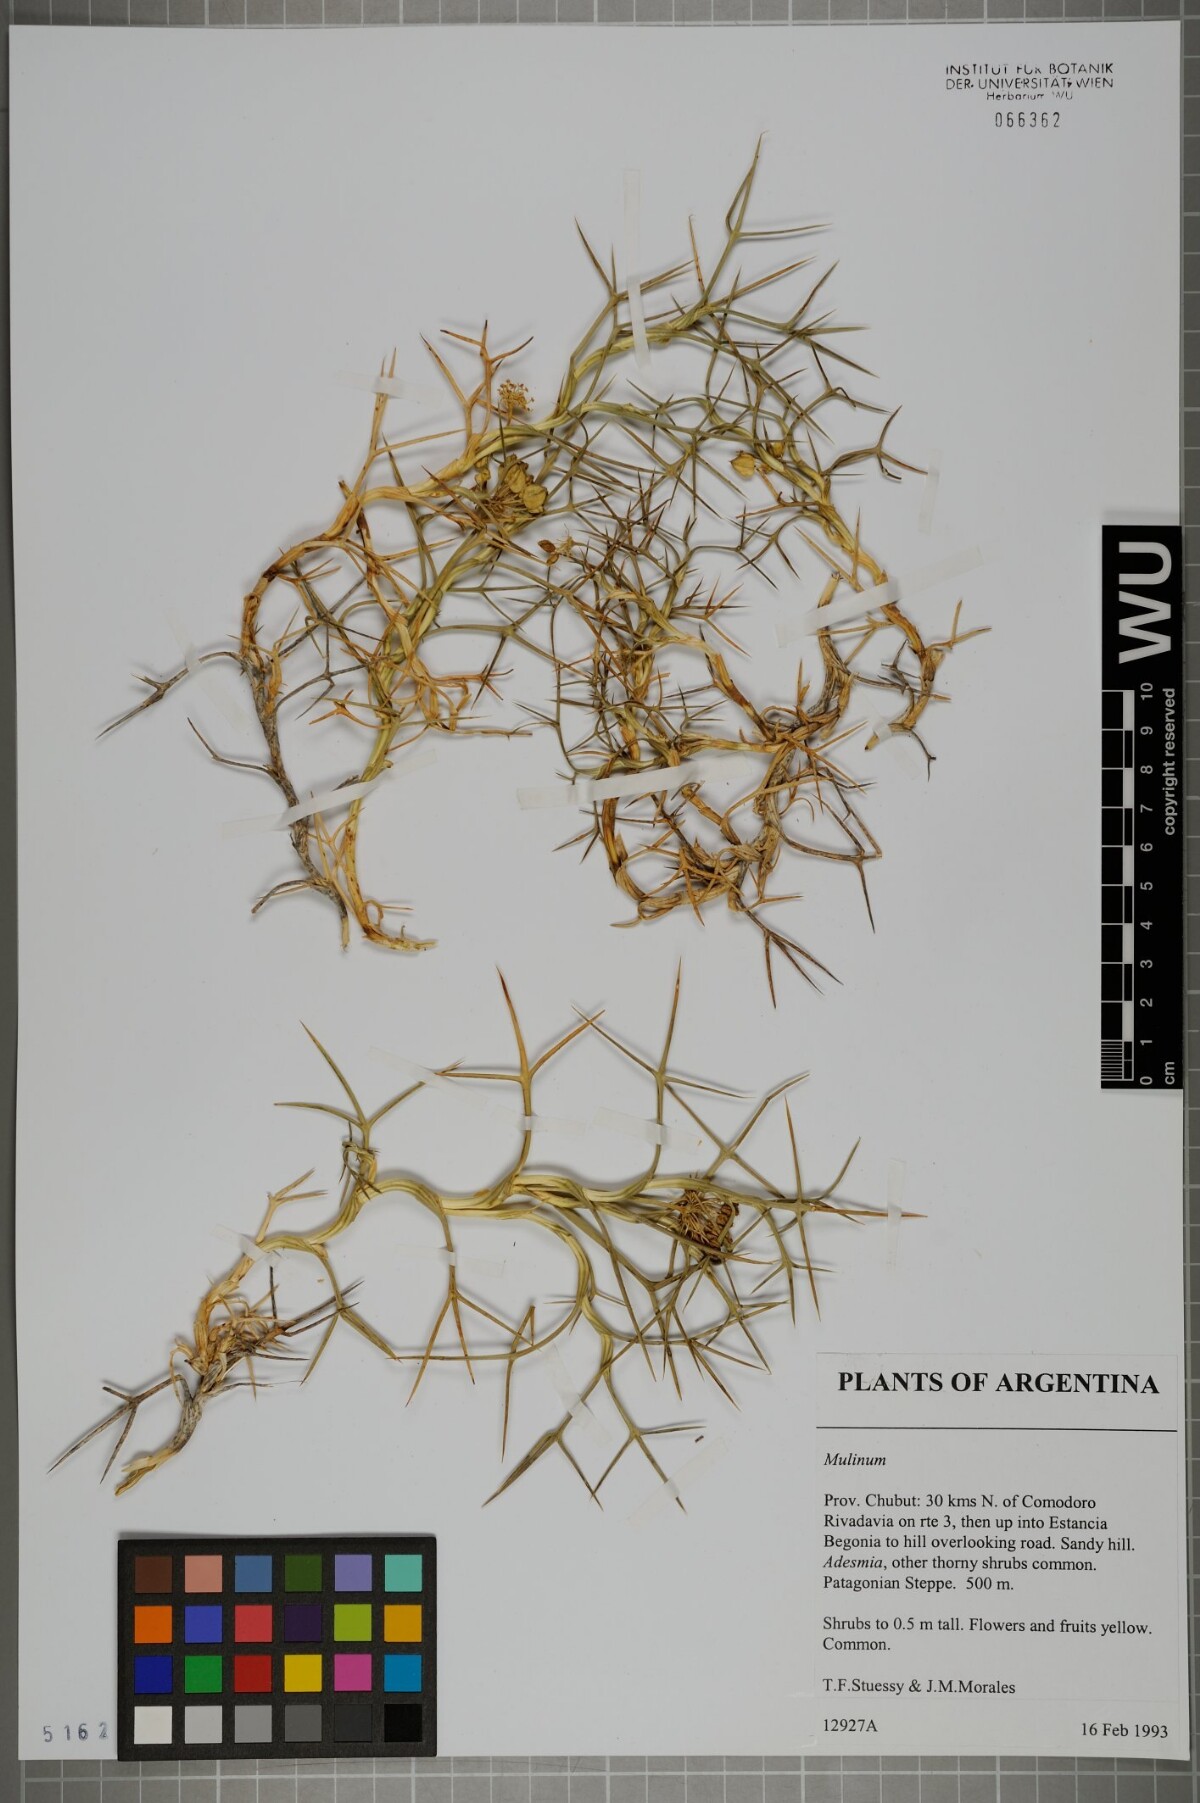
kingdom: Plantae
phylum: Tracheophyta
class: Magnoliopsida
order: Apiales
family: Apiaceae
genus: Azorella
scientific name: Azorella
